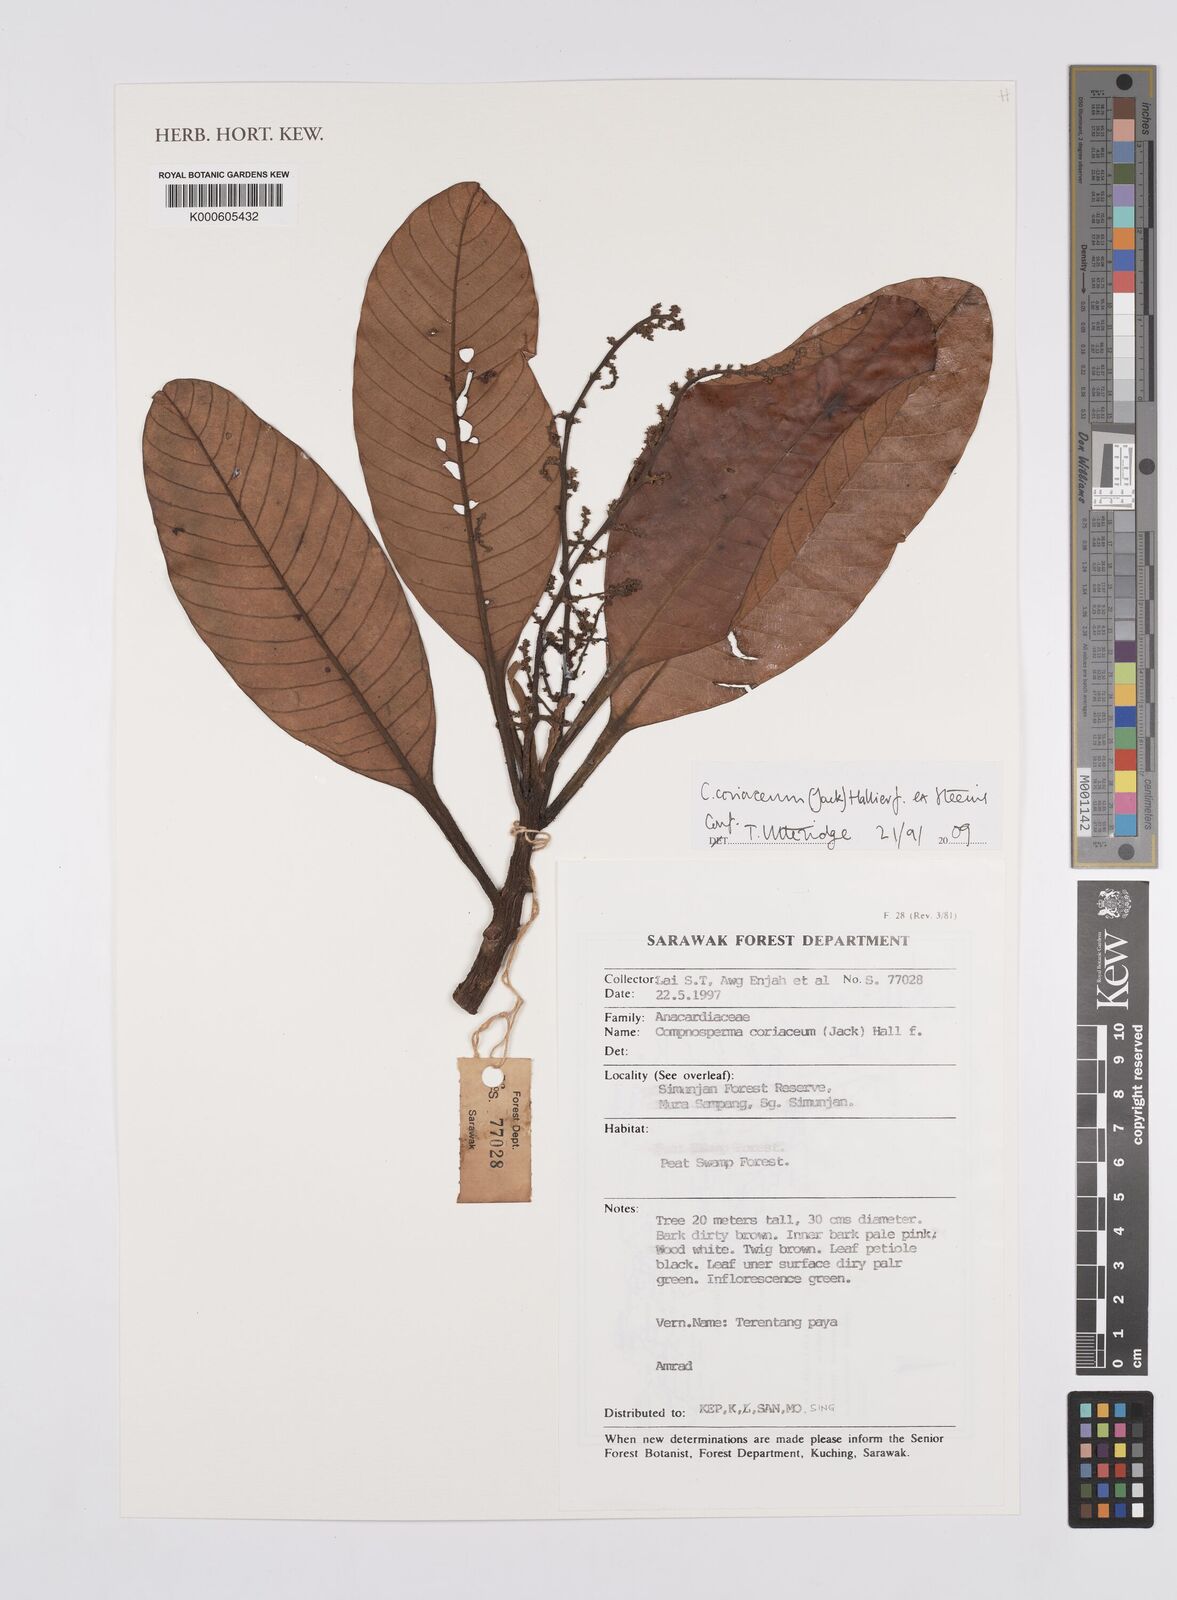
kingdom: Plantae
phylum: Tracheophyta
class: Magnoliopsida
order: Sapindales
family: Anacardiaceae
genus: Campnosperma
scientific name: Campnosperma
